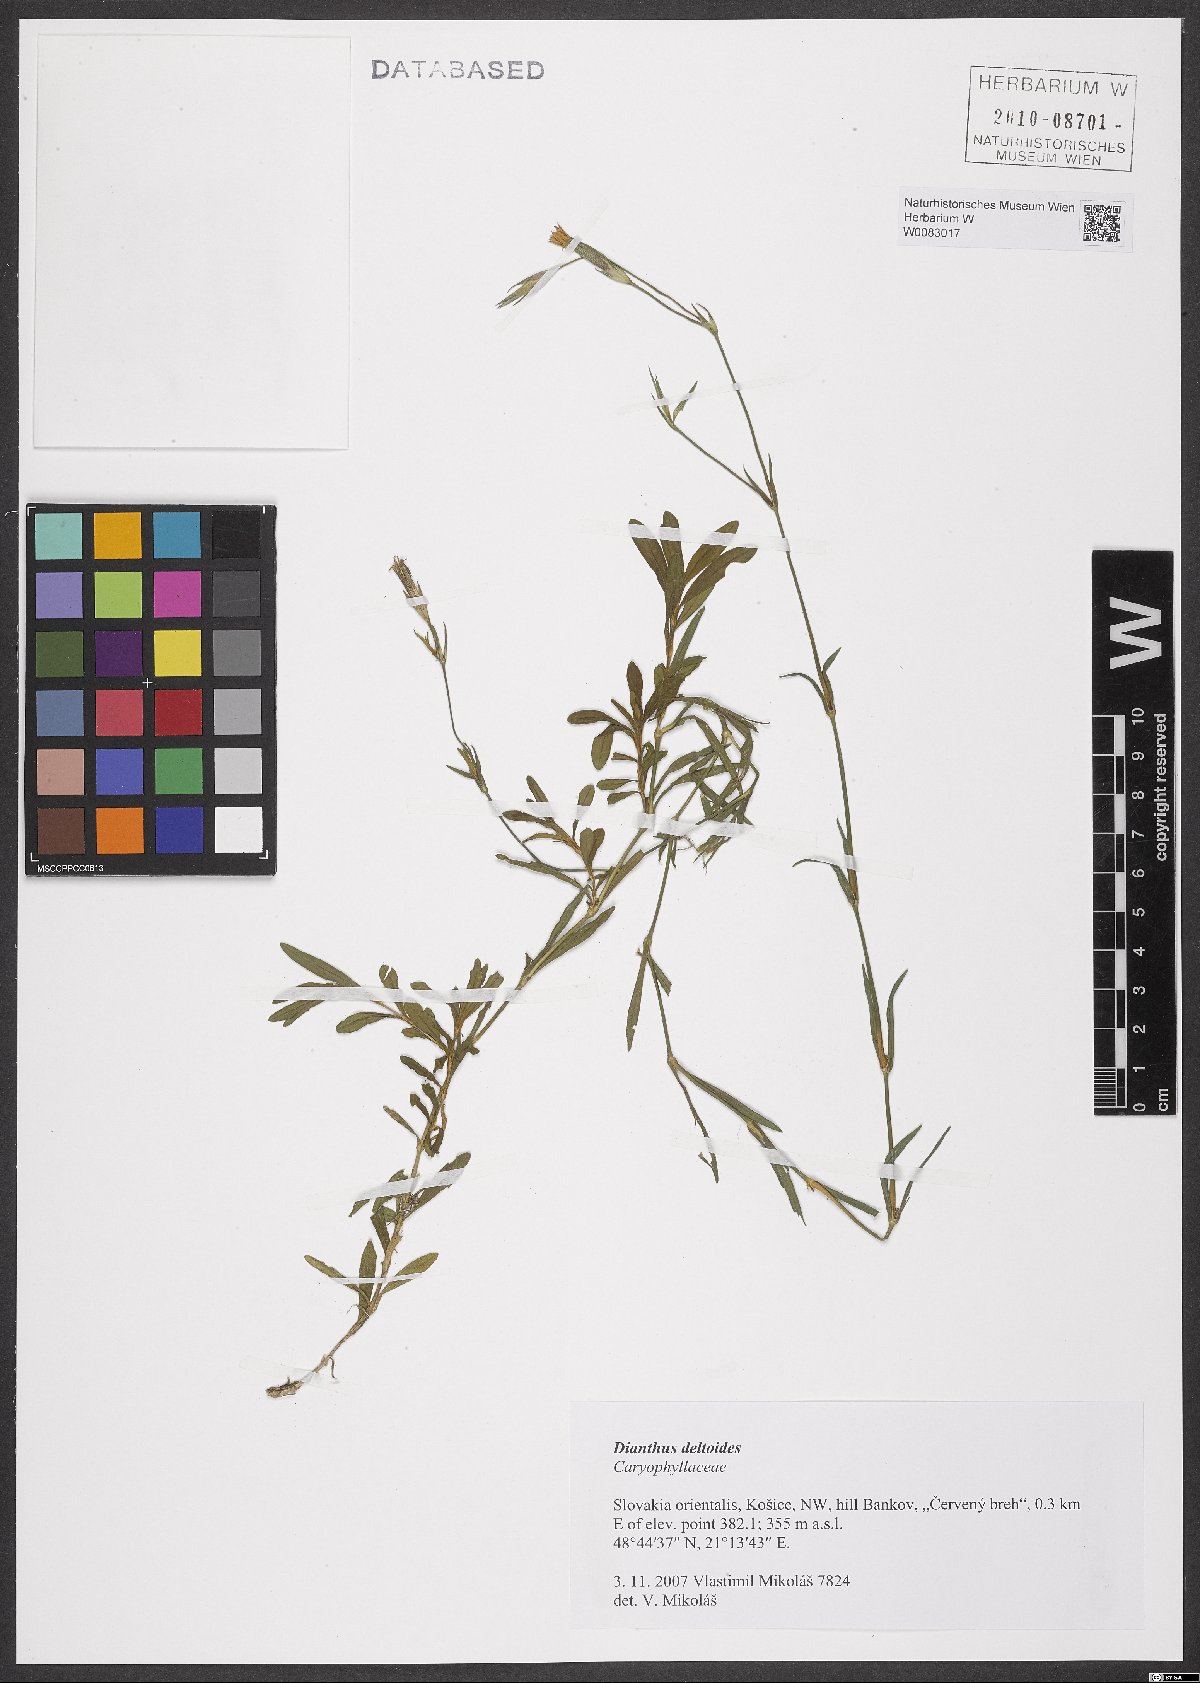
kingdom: Plantae
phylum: Tracheophyta
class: Magnoliopsida
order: Caryophyllales
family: Caryophyllaceae
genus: Dianthus
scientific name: Dianthus deltoides
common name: Maiden pink
